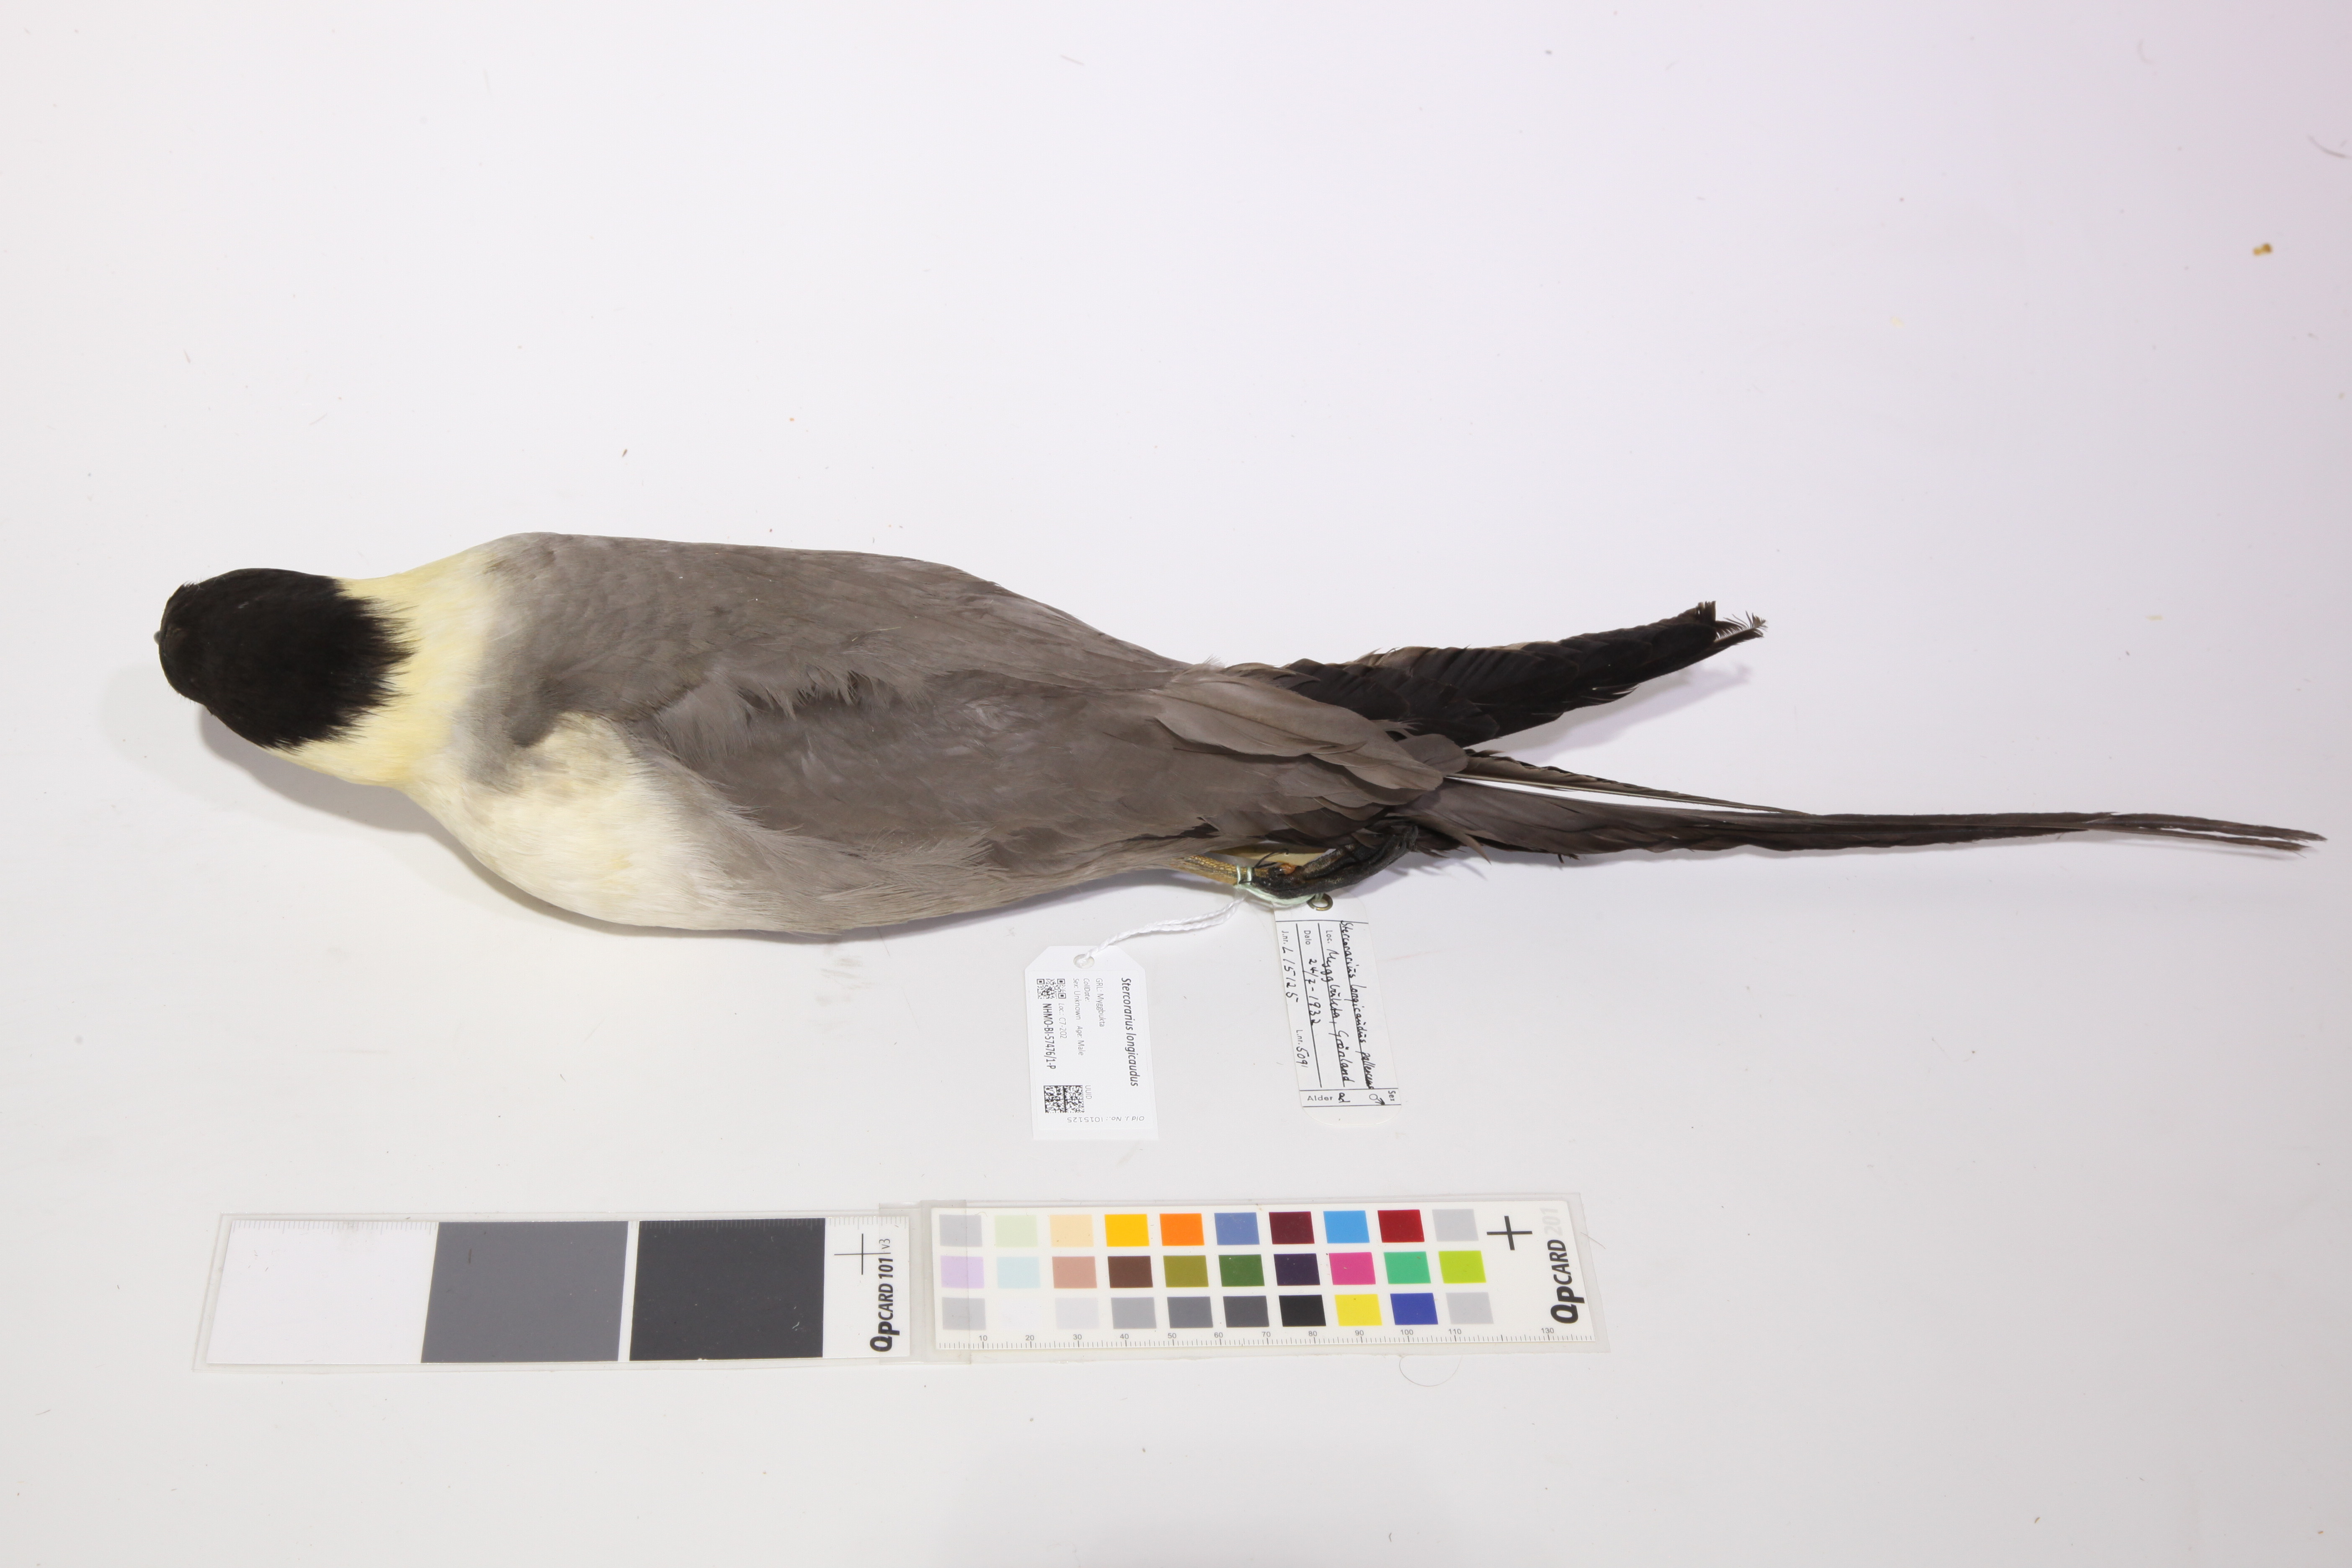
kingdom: Animalia
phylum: Chordata
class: Aves
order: Charadriiformes
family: Stercorariidae
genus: Stercorarius
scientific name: Stercorarius longicaudus
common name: Long-tailed jaeger
